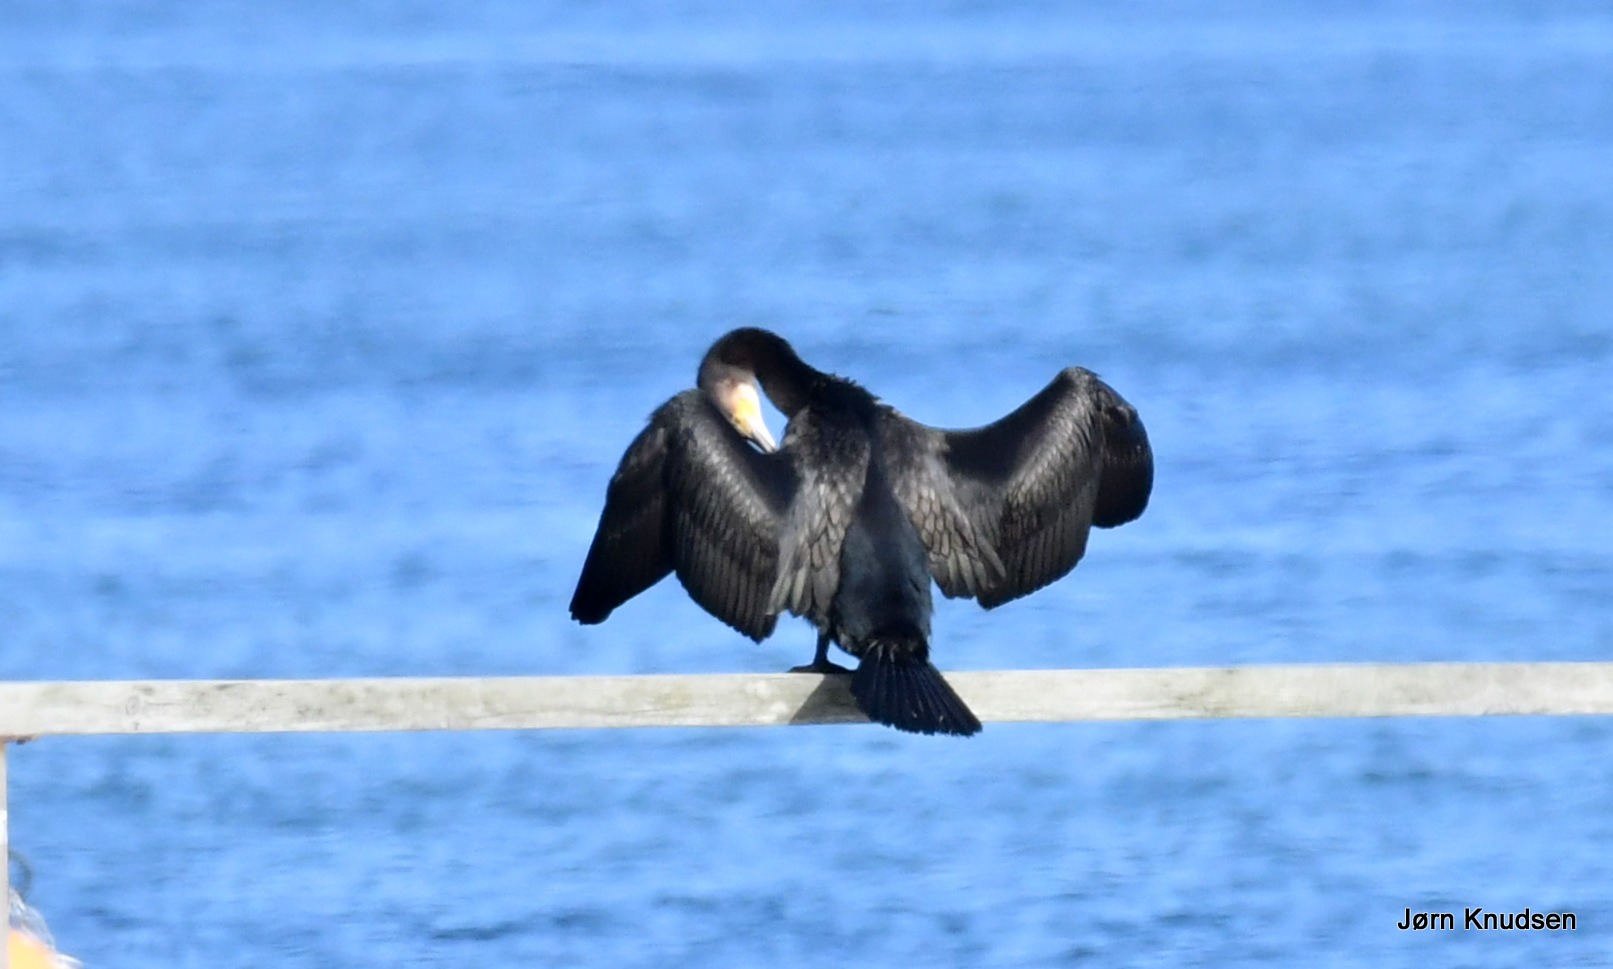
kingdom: Animalia
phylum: Chordata
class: Aves
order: Suliformes
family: Phalacrocoracidae
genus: Phalacrocorax
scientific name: Phalacrocorax carbo
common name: Skarv
